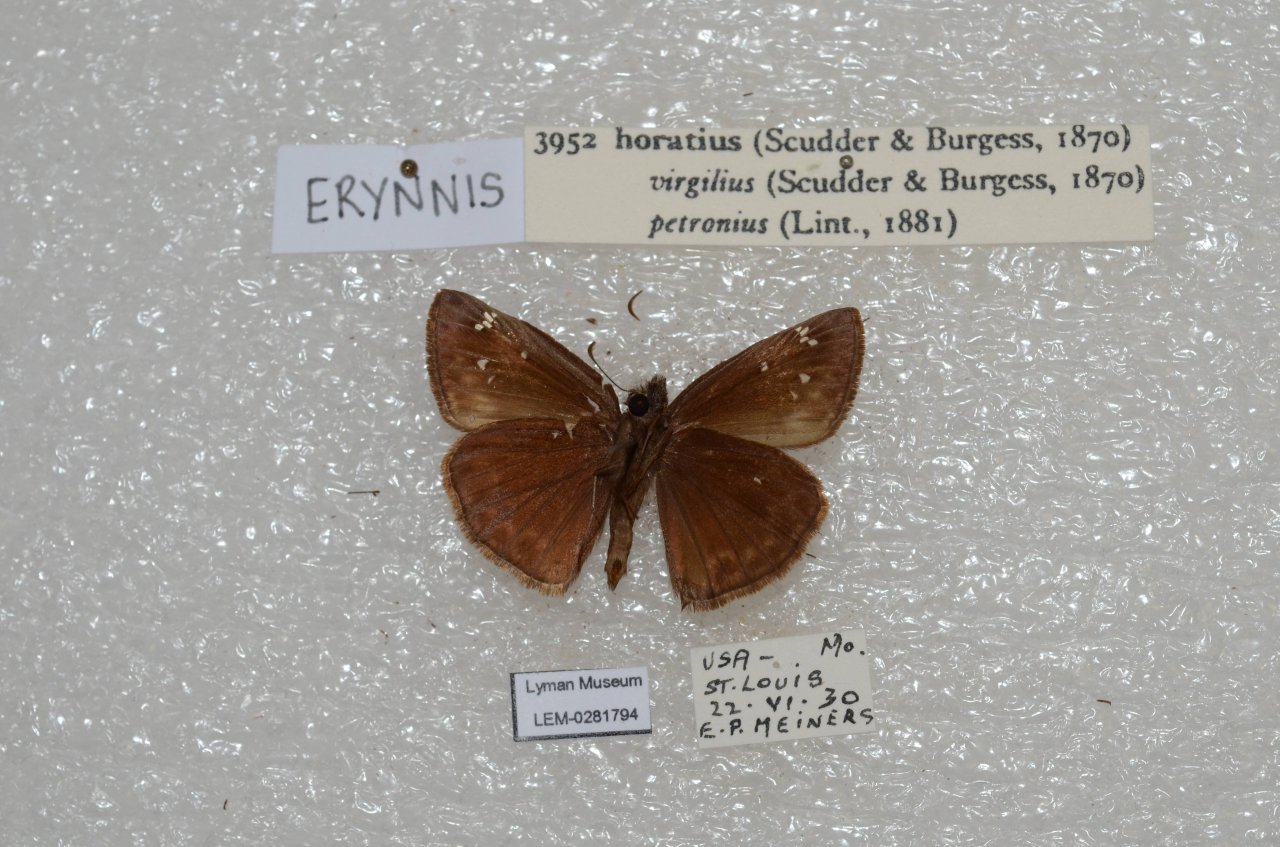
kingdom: Animalia
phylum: Arthropoda
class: Insecta
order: Lepidoptera
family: Hesperiidae
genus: Gesta
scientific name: Gesta
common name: Horace's Duskywing
